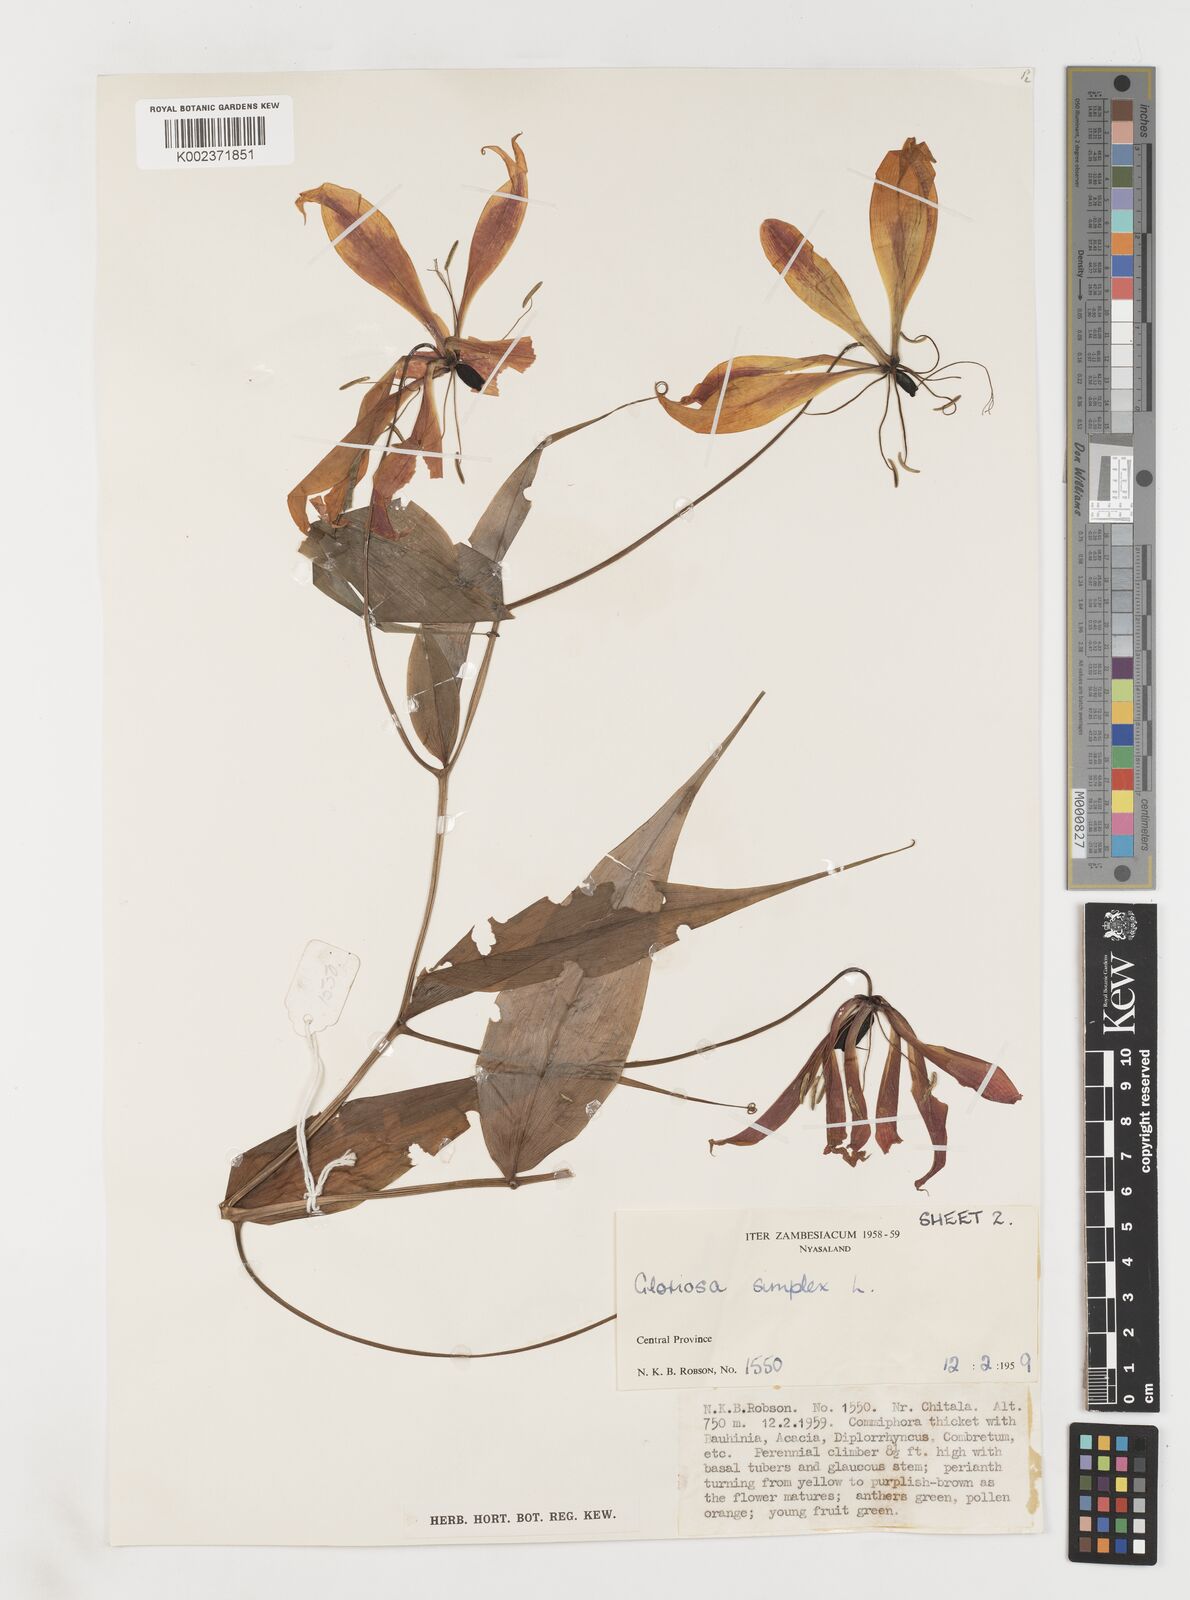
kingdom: Plantae
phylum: Tracheophyta
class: Liliopsida
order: Liliales
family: Colchicaceae
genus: Gloriosa
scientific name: Gloriosa simplex
